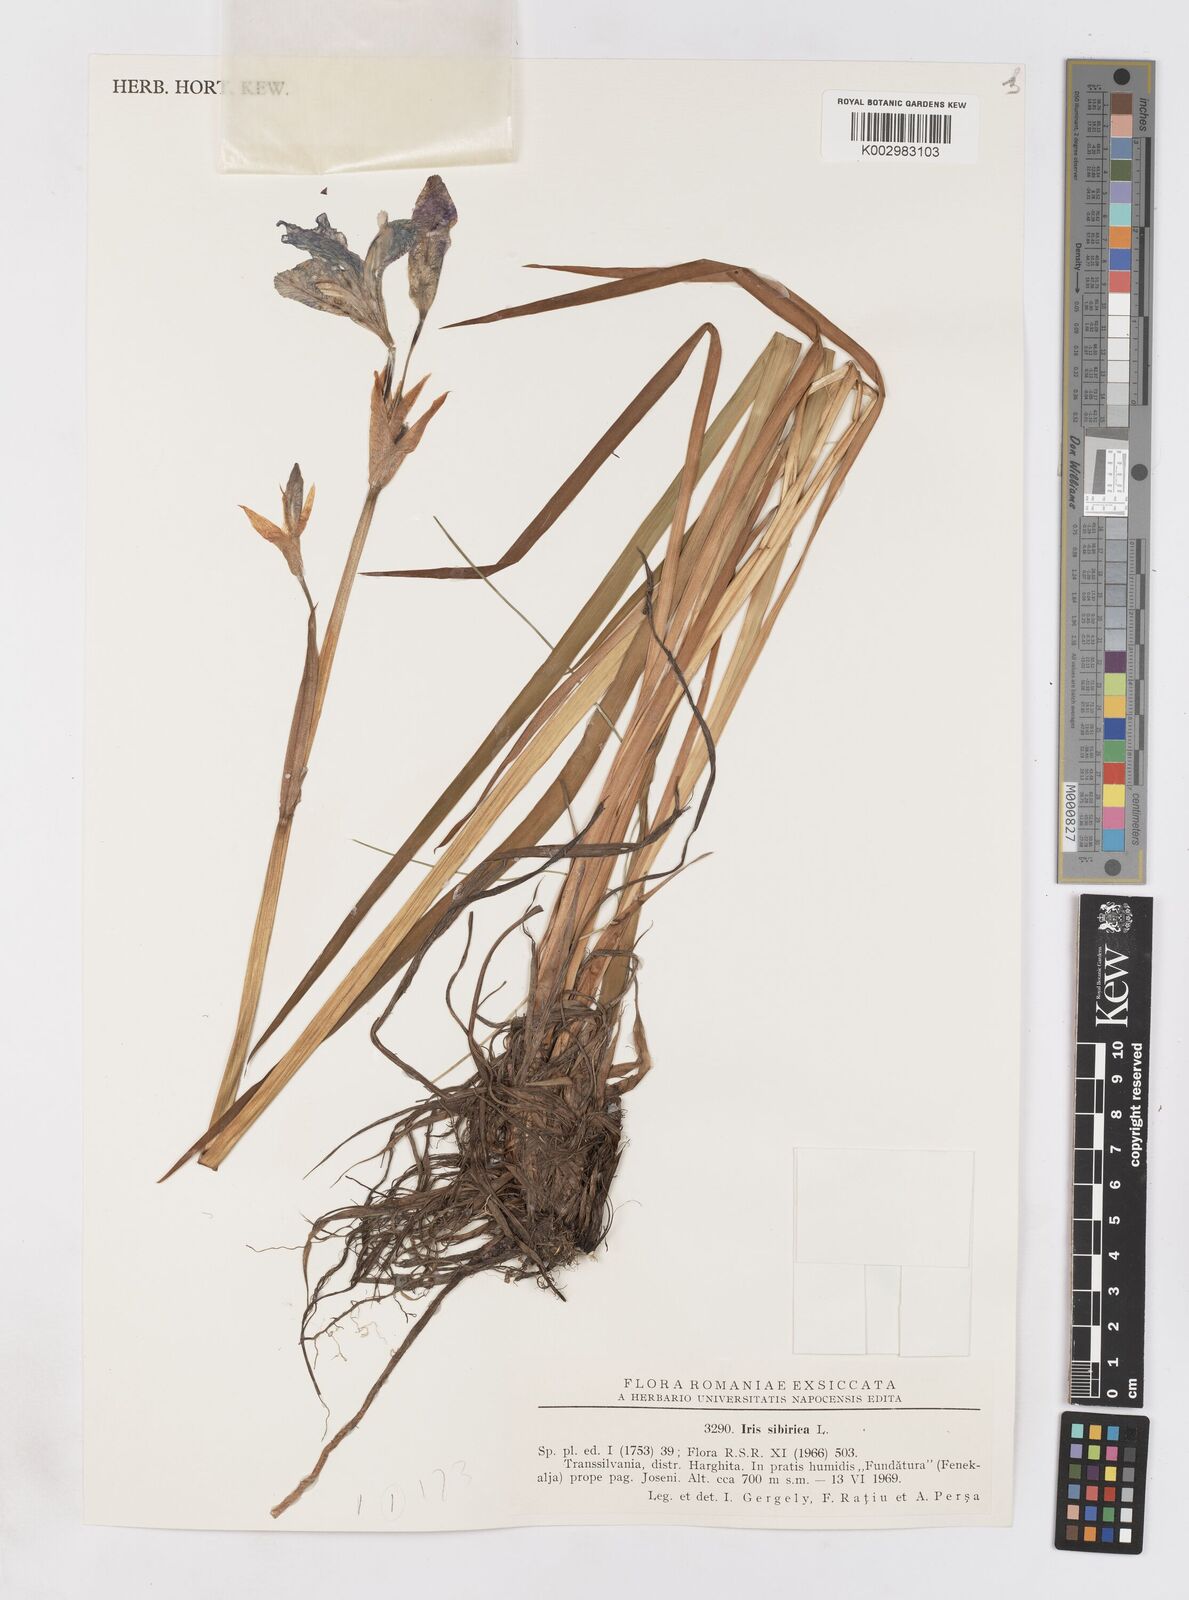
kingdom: Plantae
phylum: Tracheophyta
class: Liliopsida
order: Asparagales
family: Iridaceae
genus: Iris
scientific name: Iris sibirica
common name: Siberian iris
